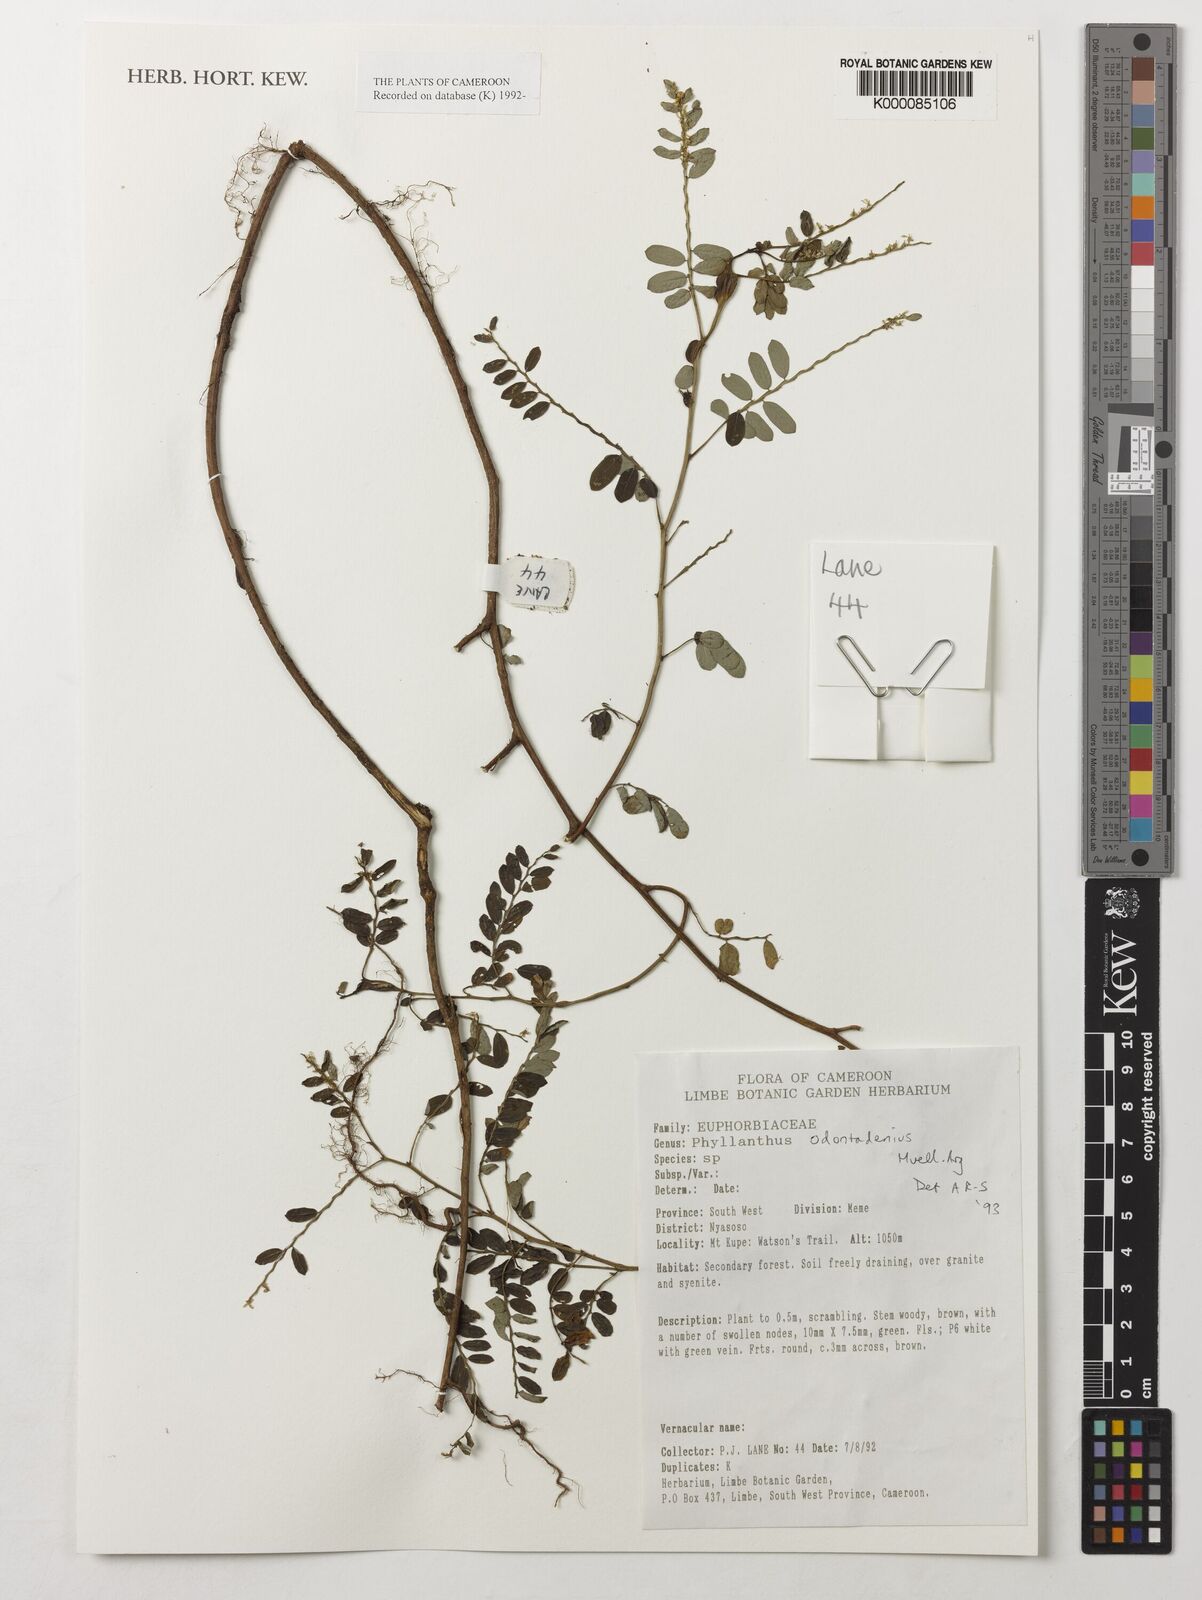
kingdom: Plantae
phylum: Tracheophyta
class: Magnoliopsida
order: Malpighiales
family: Phyllanthaceae
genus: Phyllanthus
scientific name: Phyllanthus
